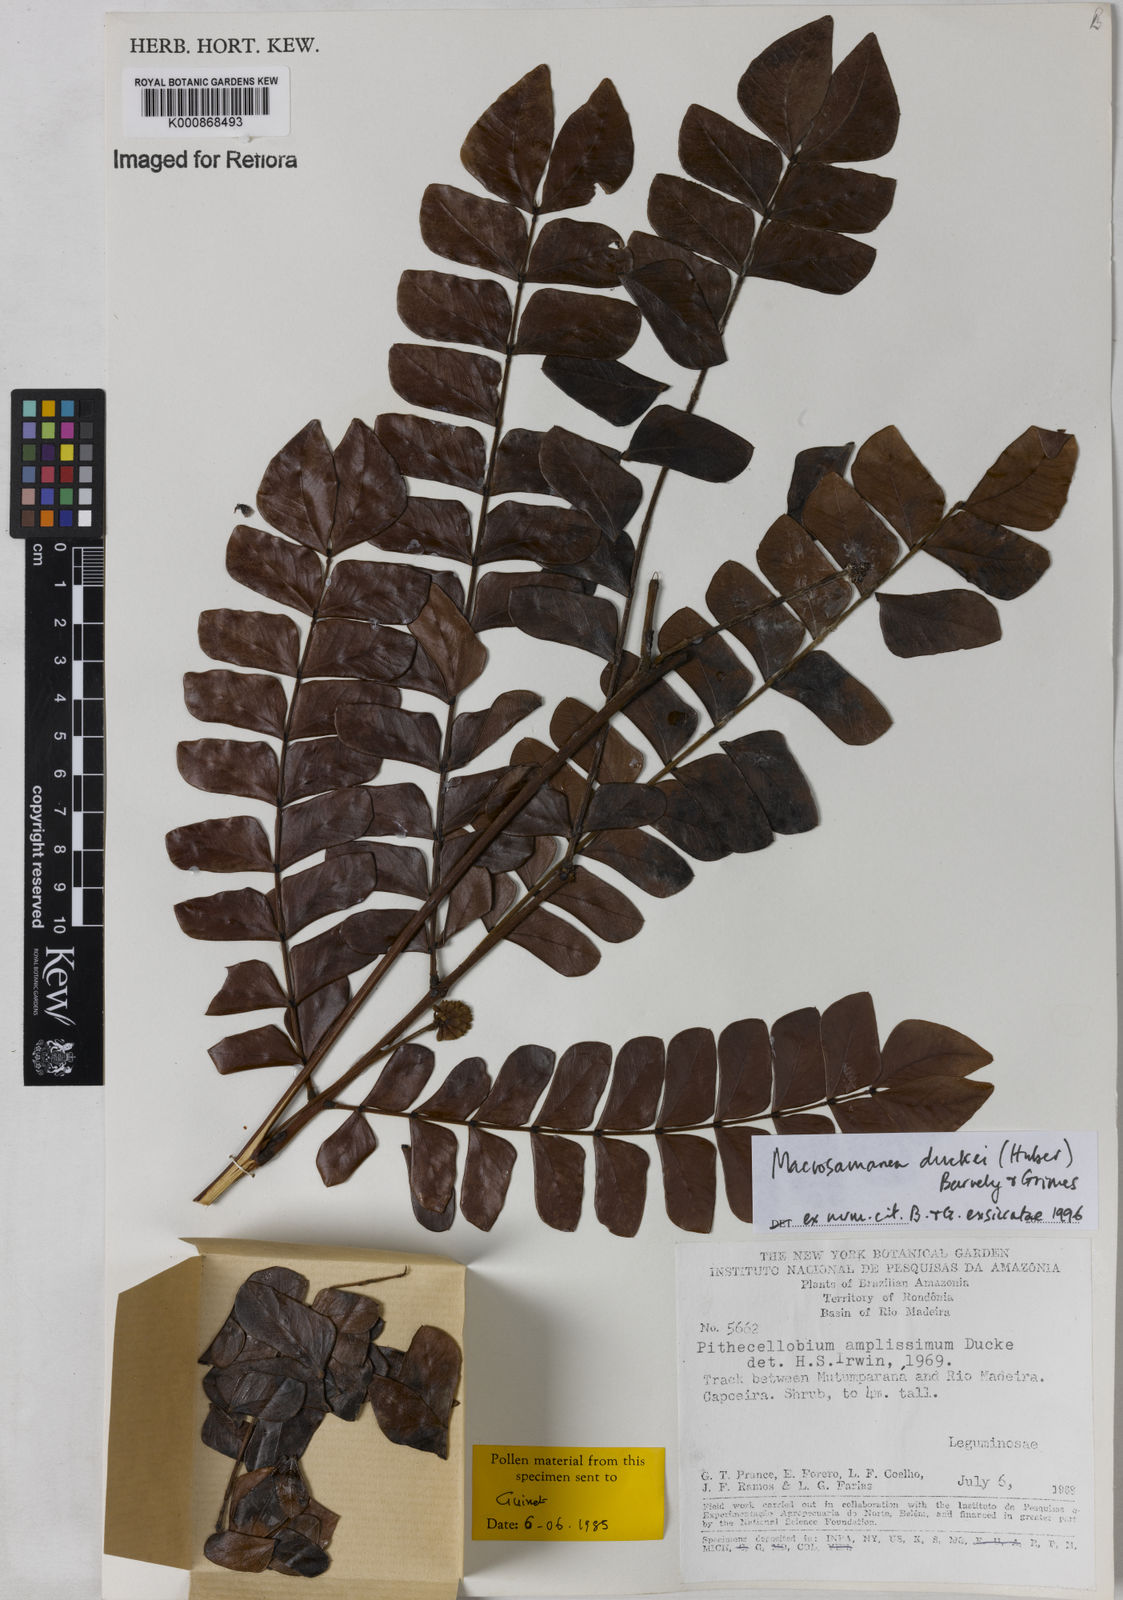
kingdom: Plantae
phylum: Tracheophyta
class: Magnoliopsida
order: Fabales
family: Fabaceae
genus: Macrosamanea
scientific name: Macrosamanea duckei
